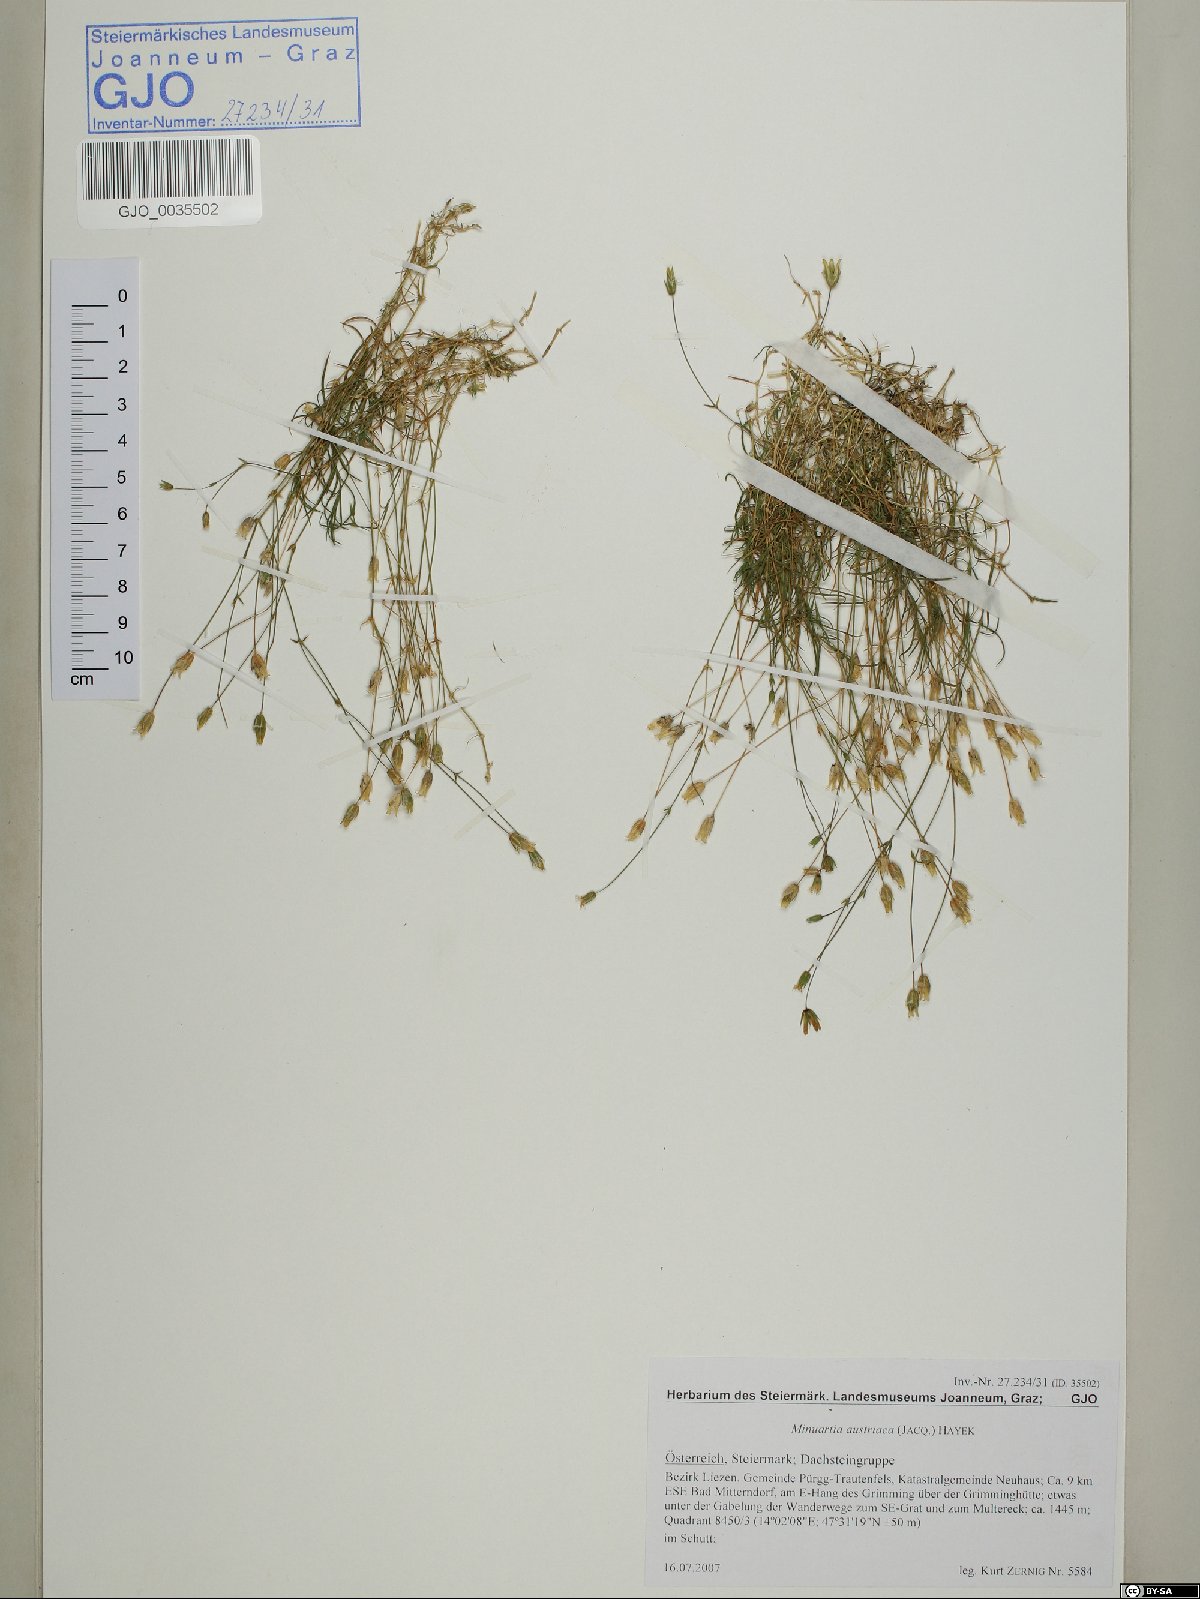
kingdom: Plantae
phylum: Tracheophyta
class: Magnoliopsida
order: Caryophyllales
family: Caryophyllaceae
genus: Sabulina
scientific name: Sabulina austriaca
